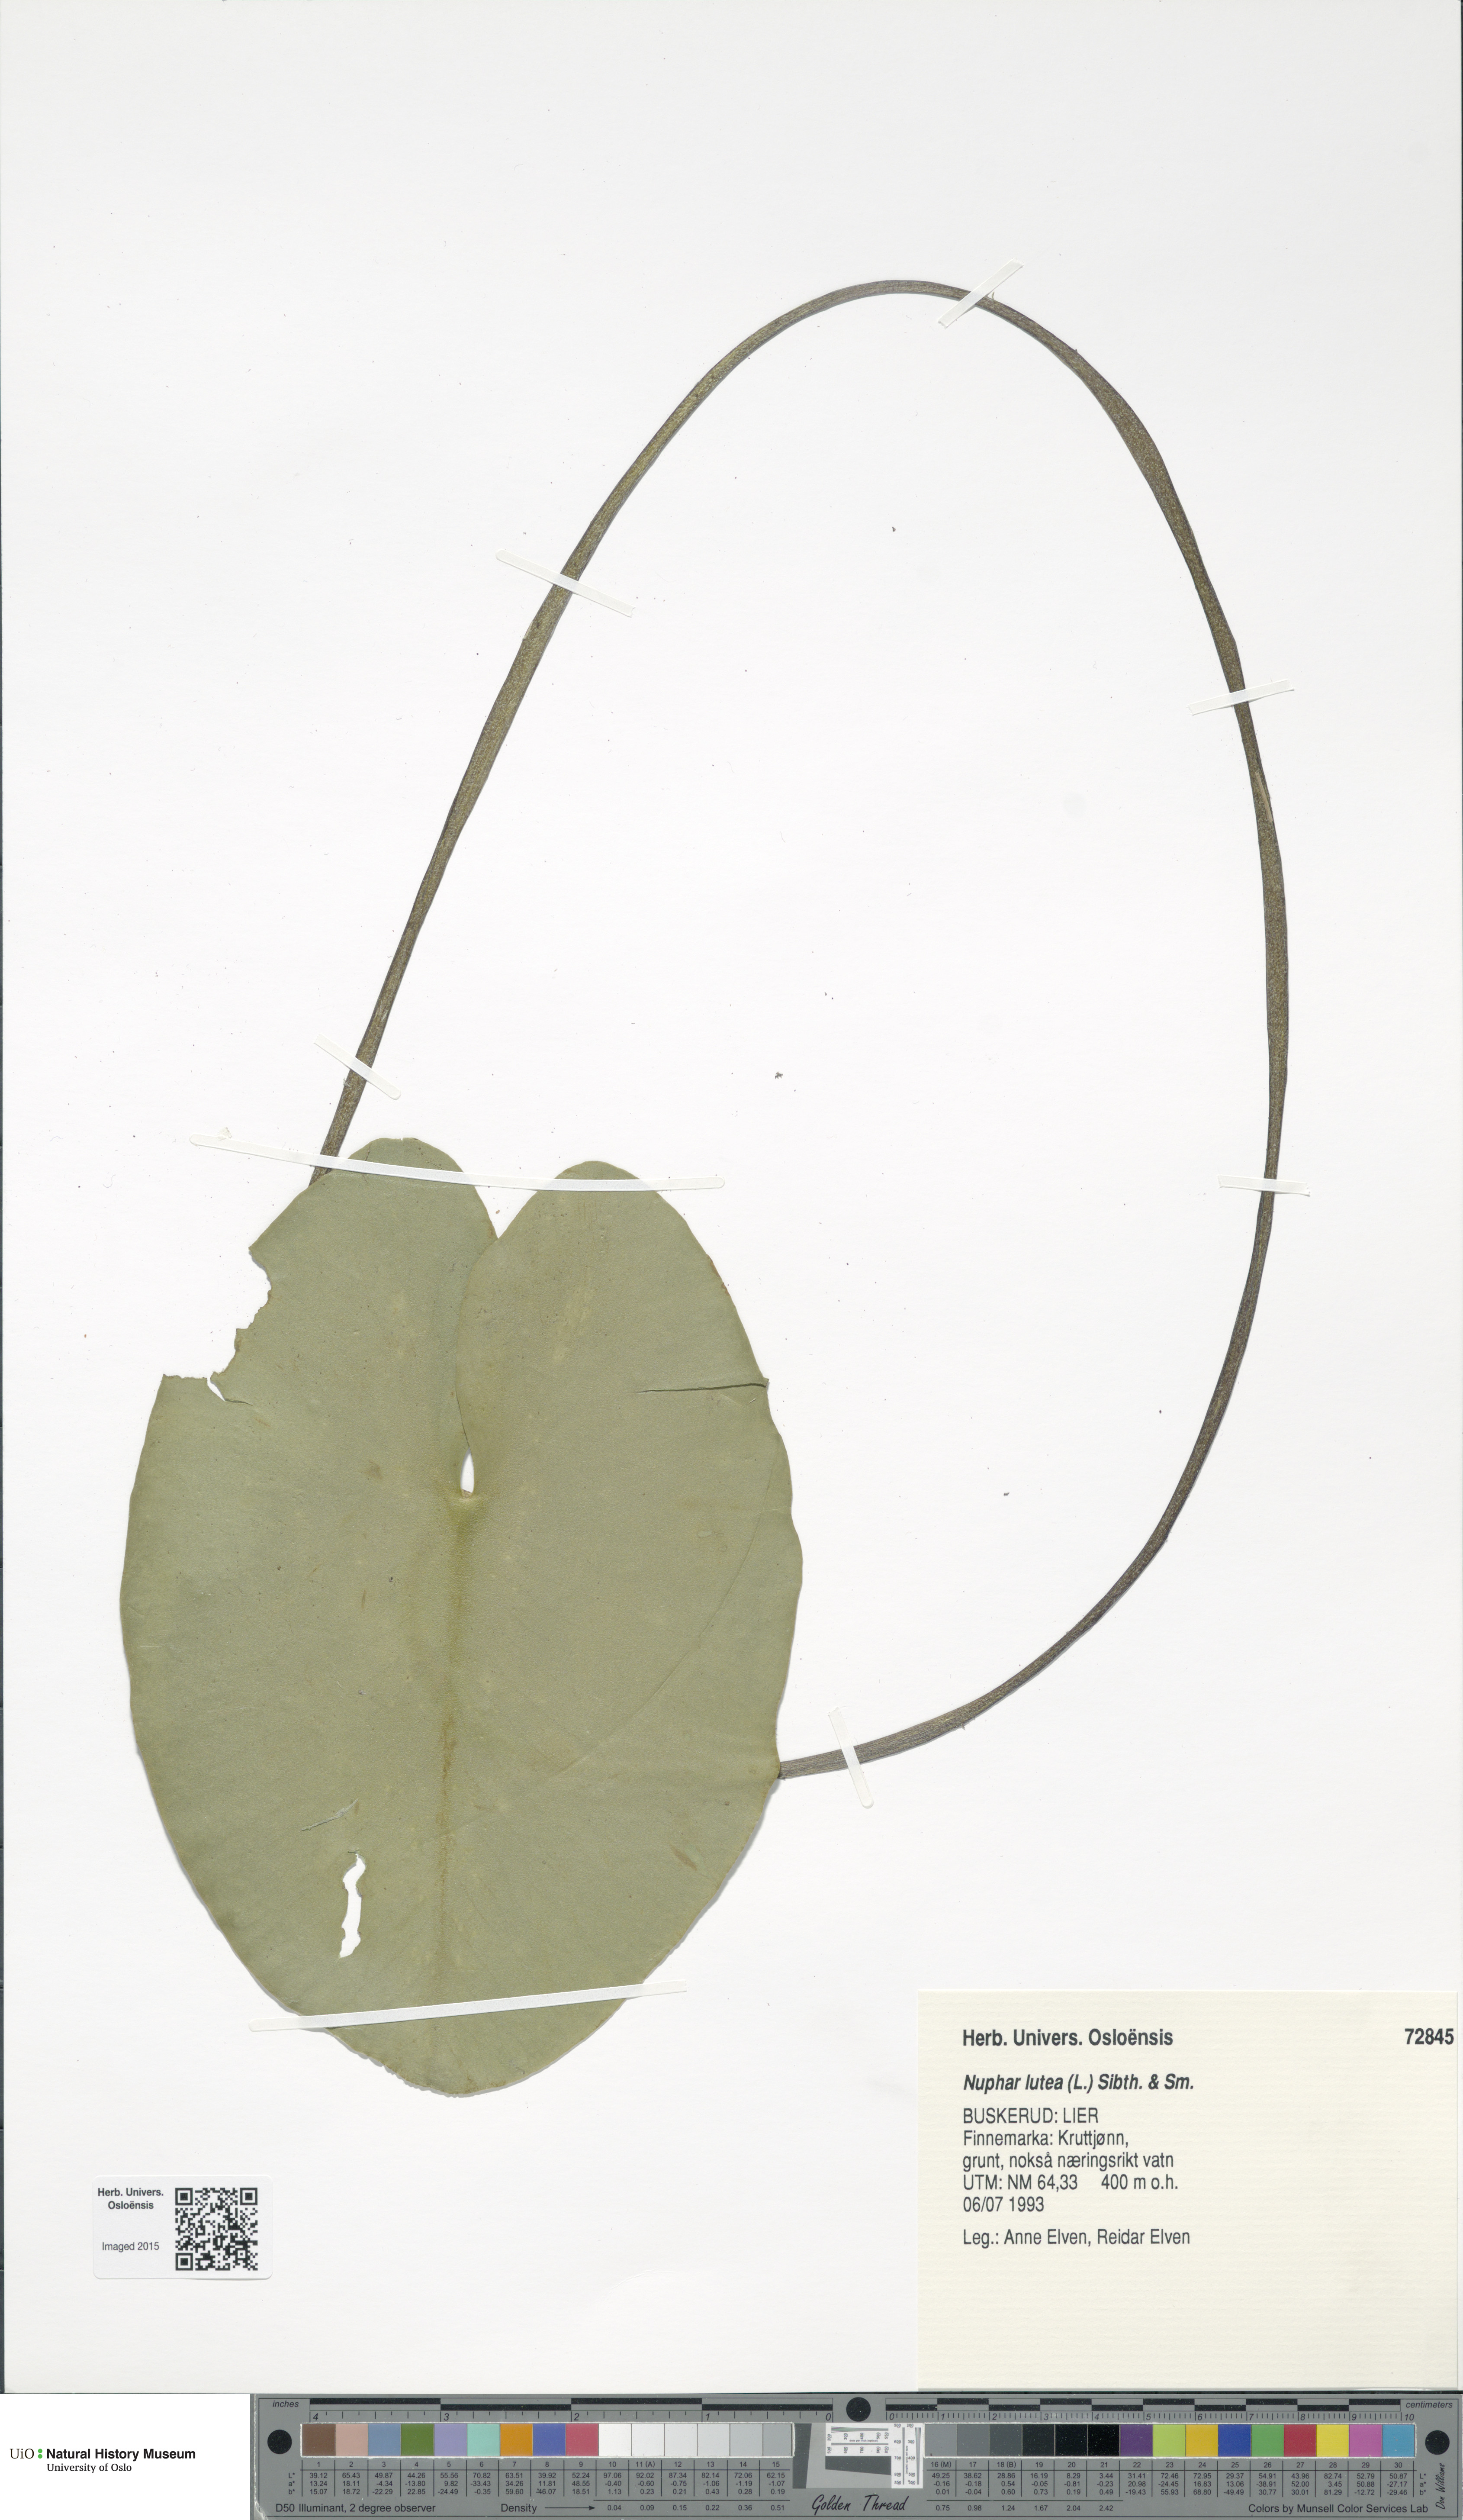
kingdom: Plantae
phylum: Tracheophyta
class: Magnoliopsida
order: Nymphaeales
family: Nymphaeaceae
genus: Nuphar
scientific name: Nuphar lutea
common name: Yellow water-lily
